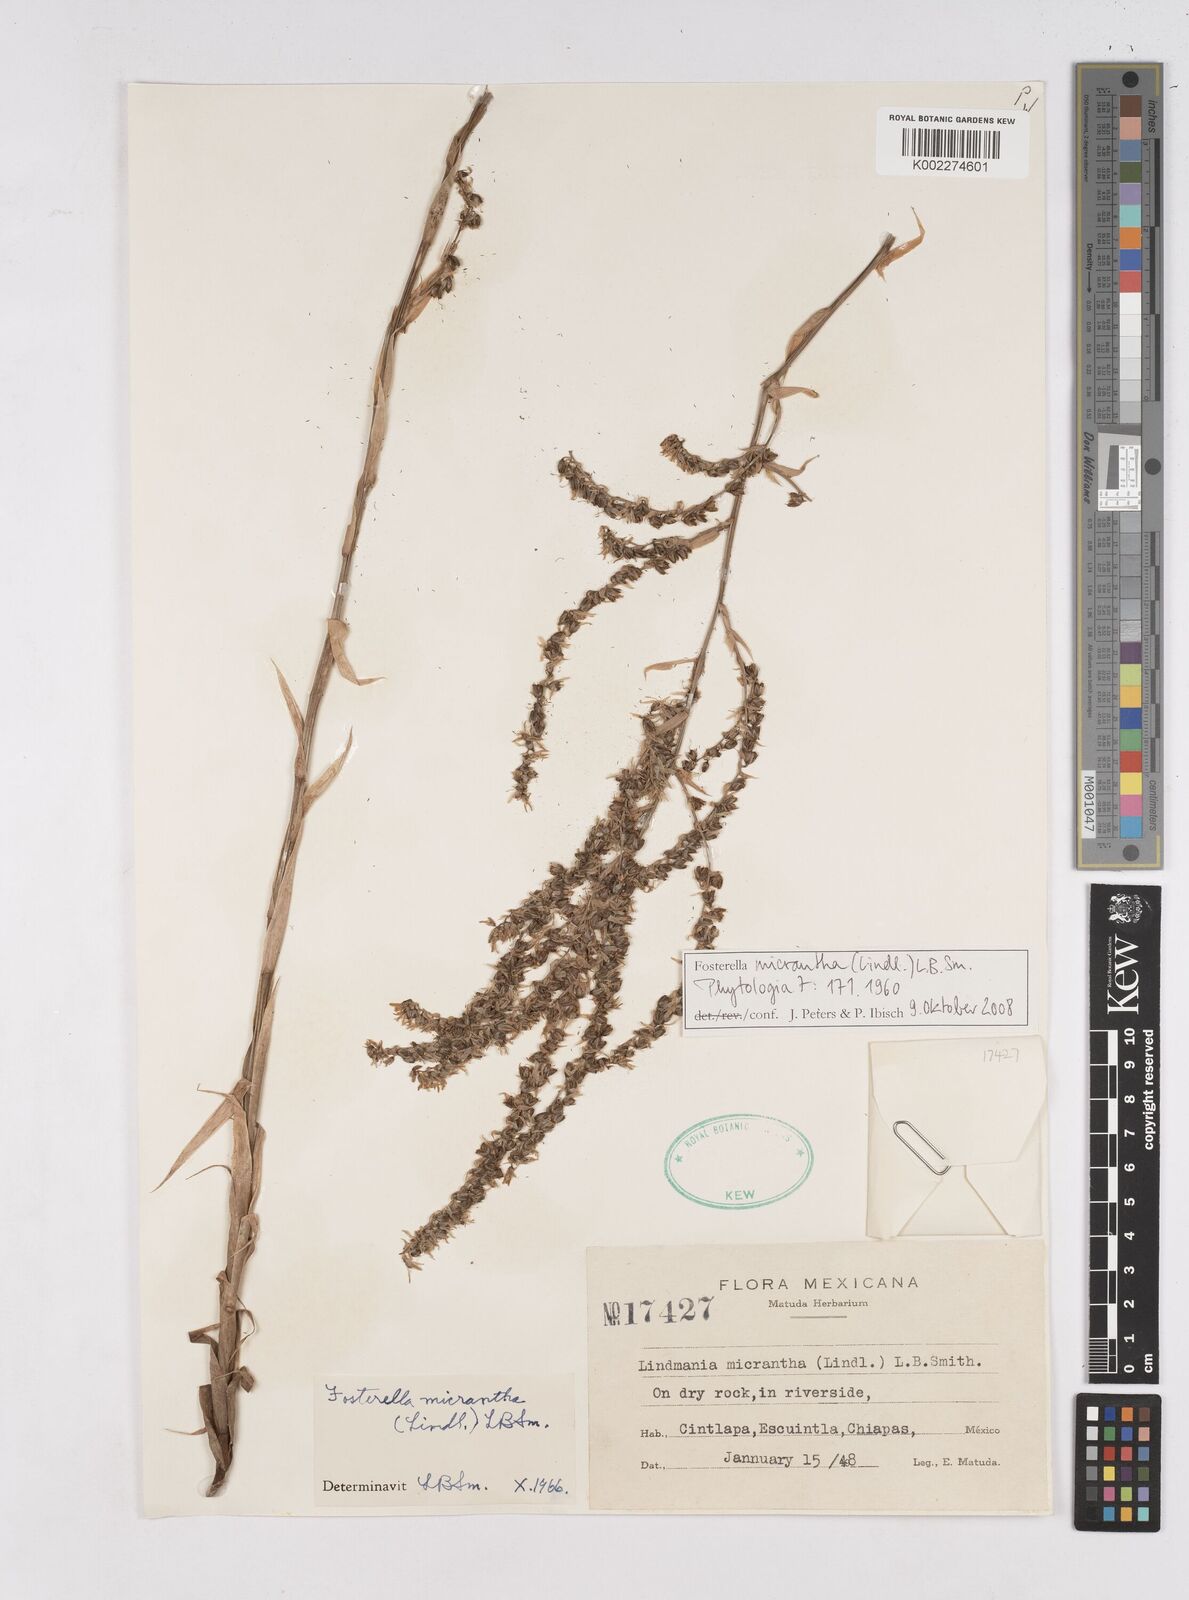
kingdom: Plantae
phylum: Tracheophyta
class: Liliopsida
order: Poales
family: Bromeliaceae
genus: Fosterella
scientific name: Fosterella micrantha
